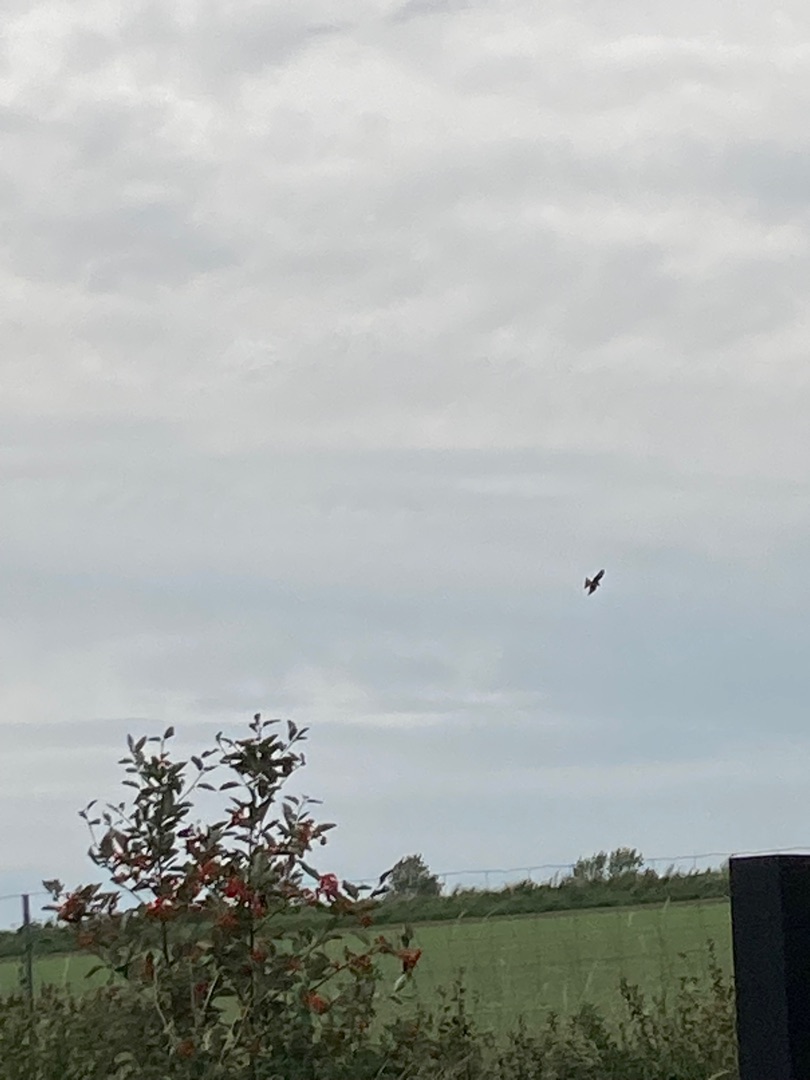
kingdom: Animalia
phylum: Chordata
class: Aves
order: Accipitriformes
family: Accipitridae
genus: Milvus
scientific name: Milvus milvus
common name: Rød glente
